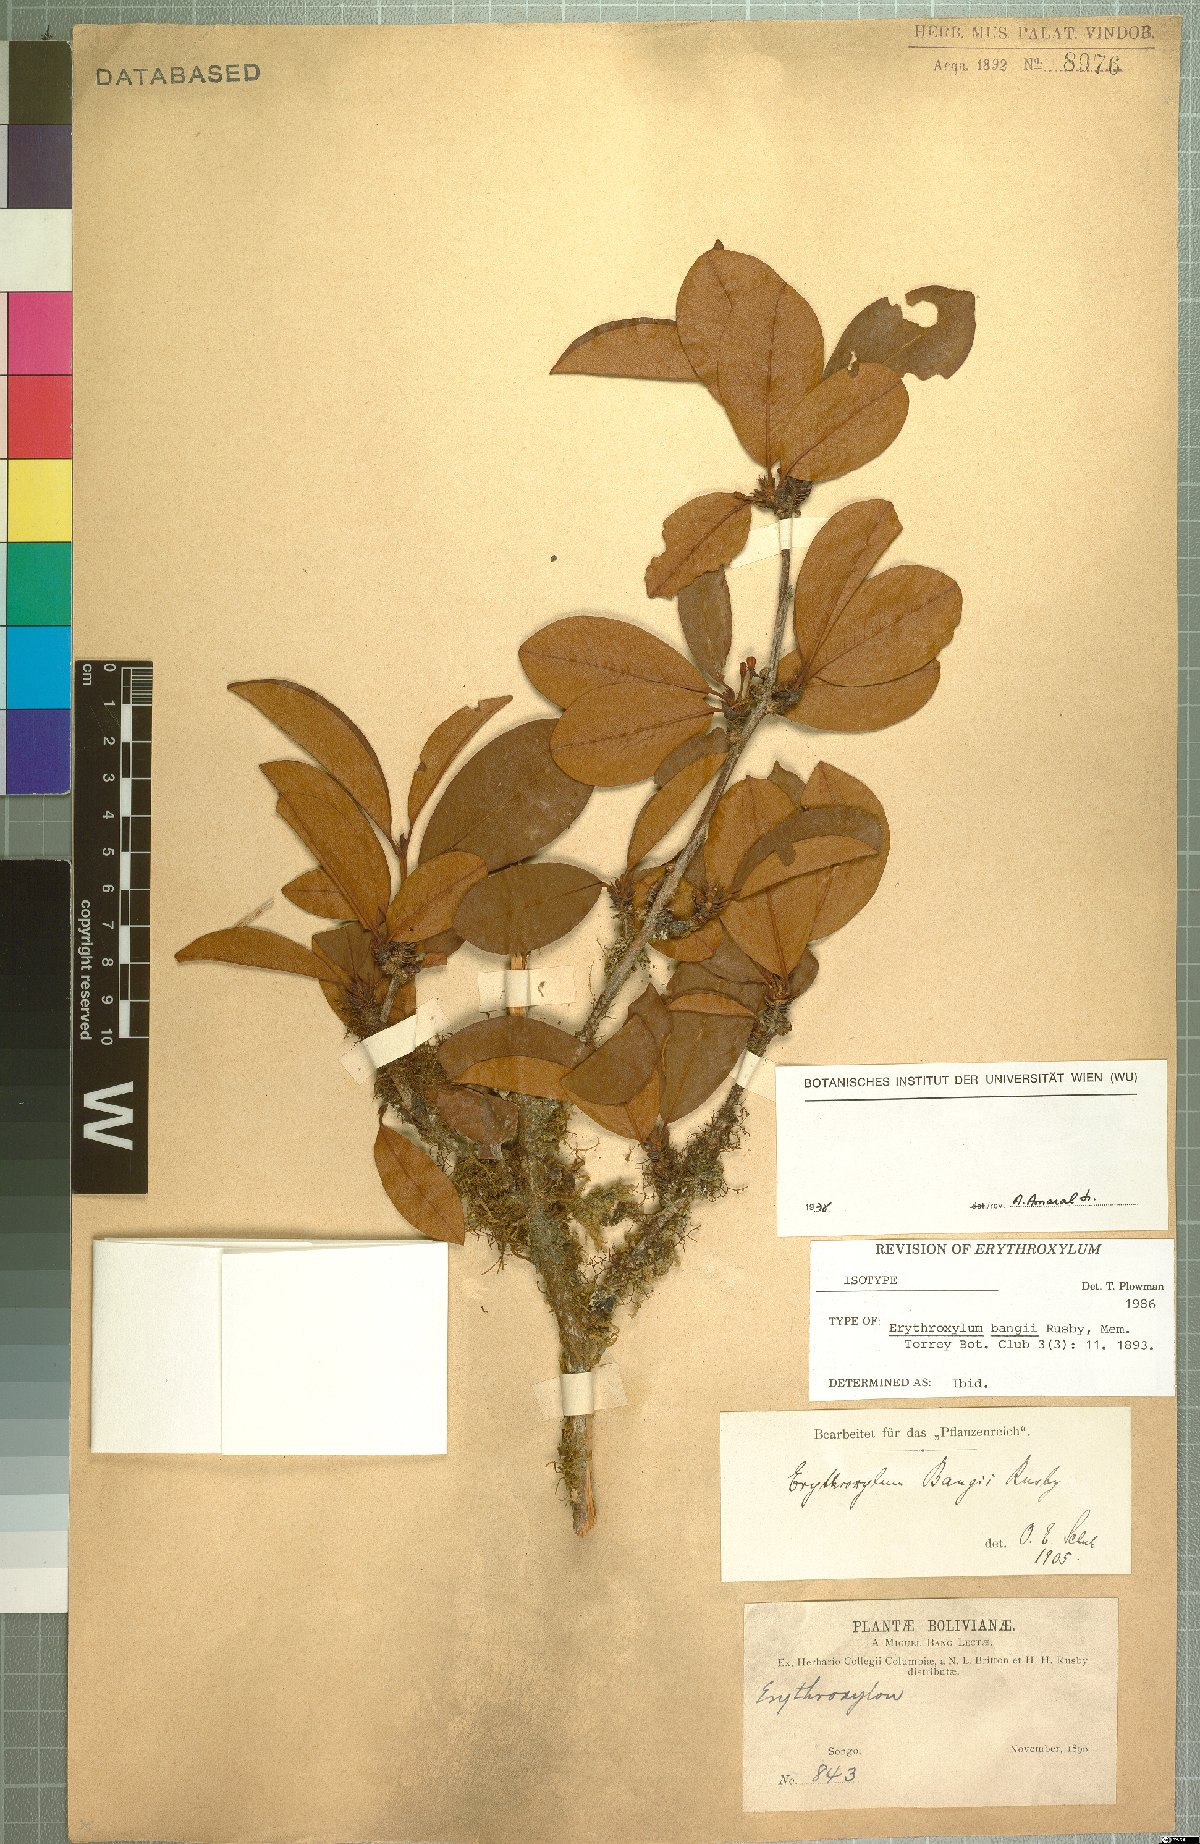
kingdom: Plantae
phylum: Tracheophyta
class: Magnoliopsida
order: Malpighiales
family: Erythroxylaceae
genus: Erythroxylum
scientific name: Erythroxylum bangii
